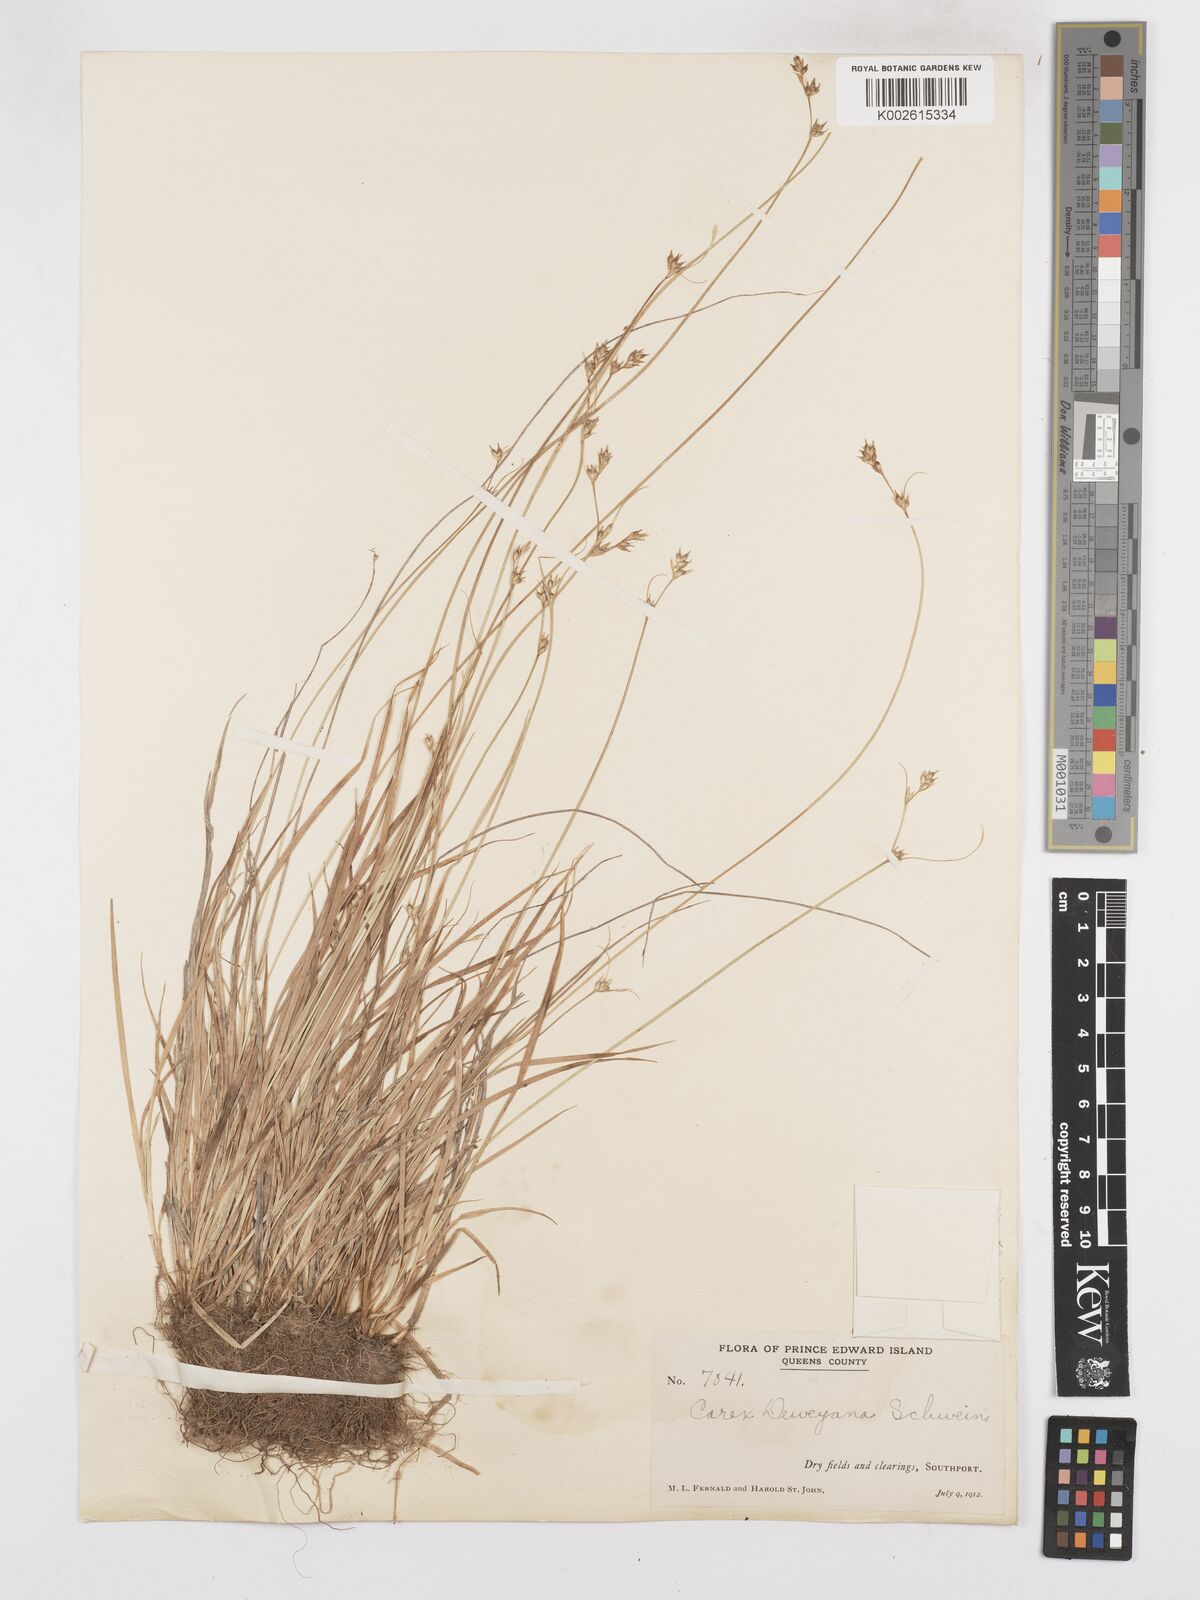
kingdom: Plantae
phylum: Tracheophyta
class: Liliopsida
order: Poales
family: Cyperaceae
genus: Carex
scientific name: Carex deweyana
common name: Dewey's sedge
